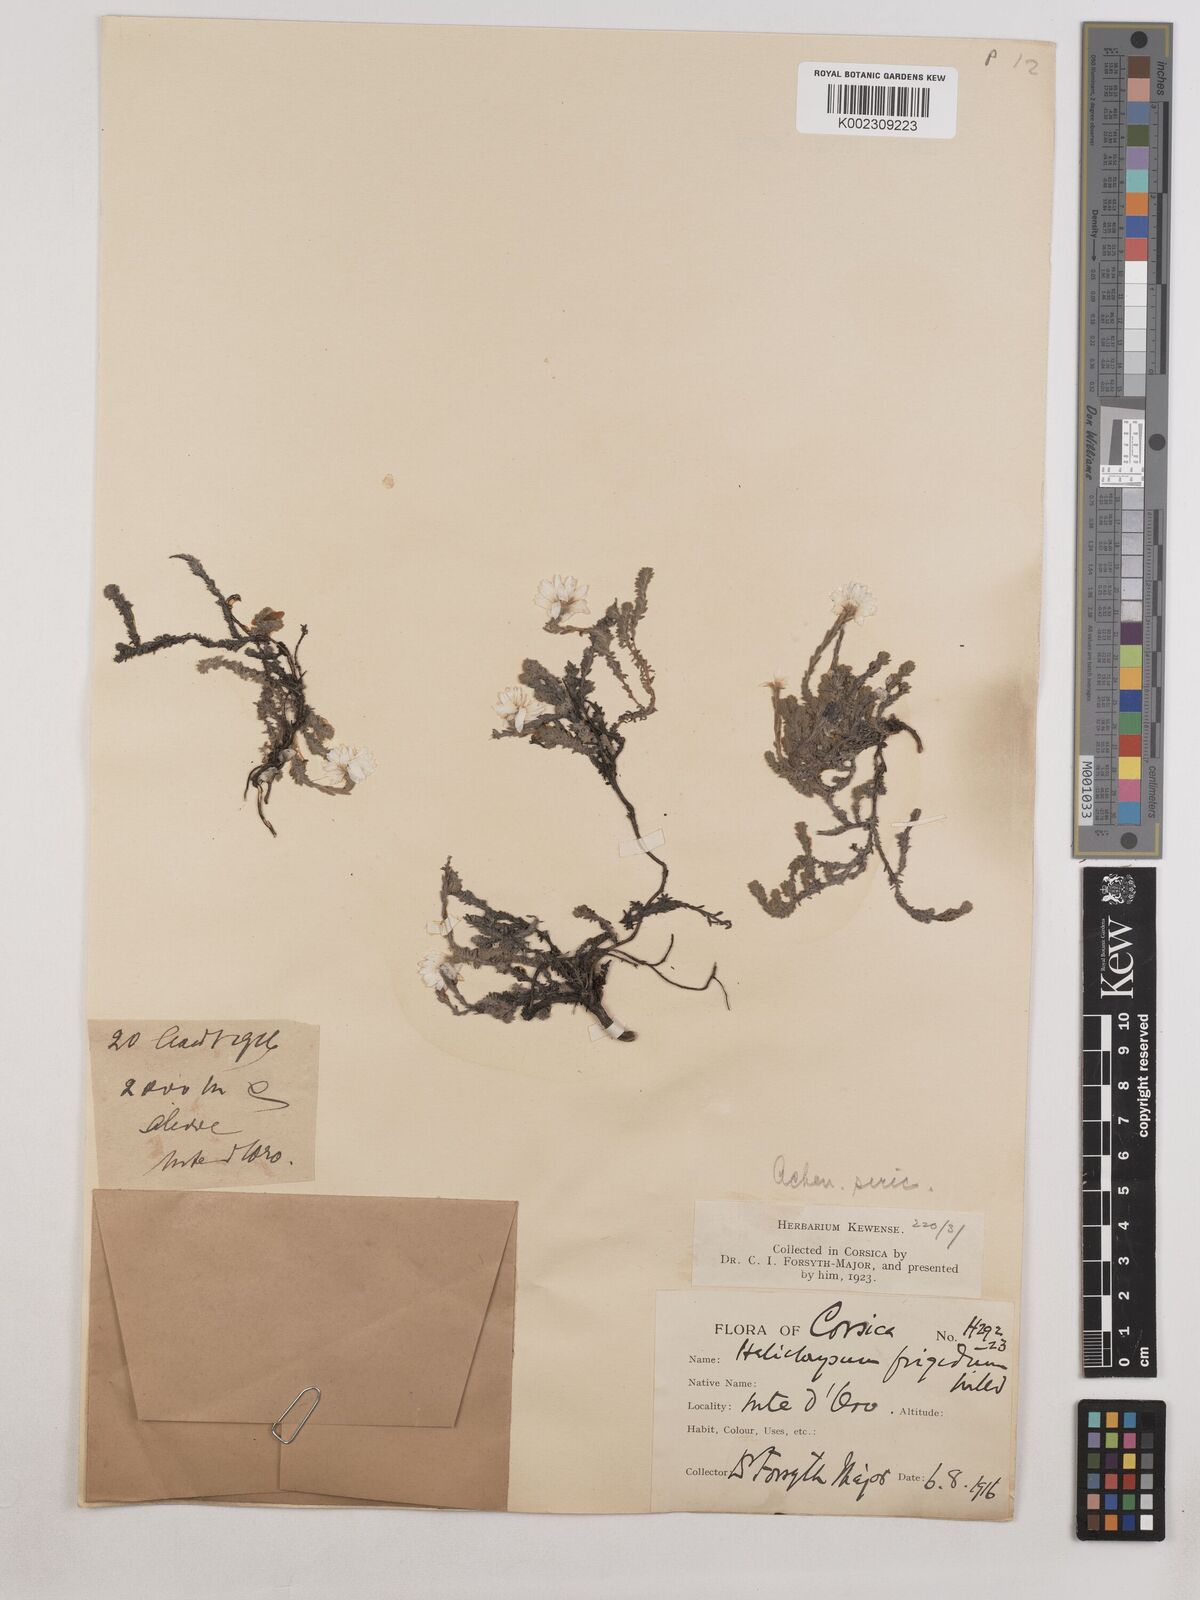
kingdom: Plantae
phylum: Tracheophyta
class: Magnoliopsida
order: Asterales
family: Asteraceae
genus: Castroviejoa
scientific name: Castroviejoa frigida
